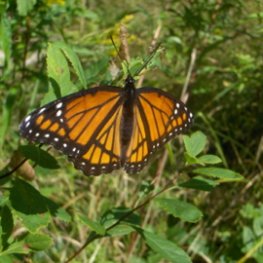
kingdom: Animalia
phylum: Arthropoda
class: Insecta
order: Lepidoptera
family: Nymphalidae
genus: Limenitis
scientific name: Limenitis archippus
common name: Viceroy
